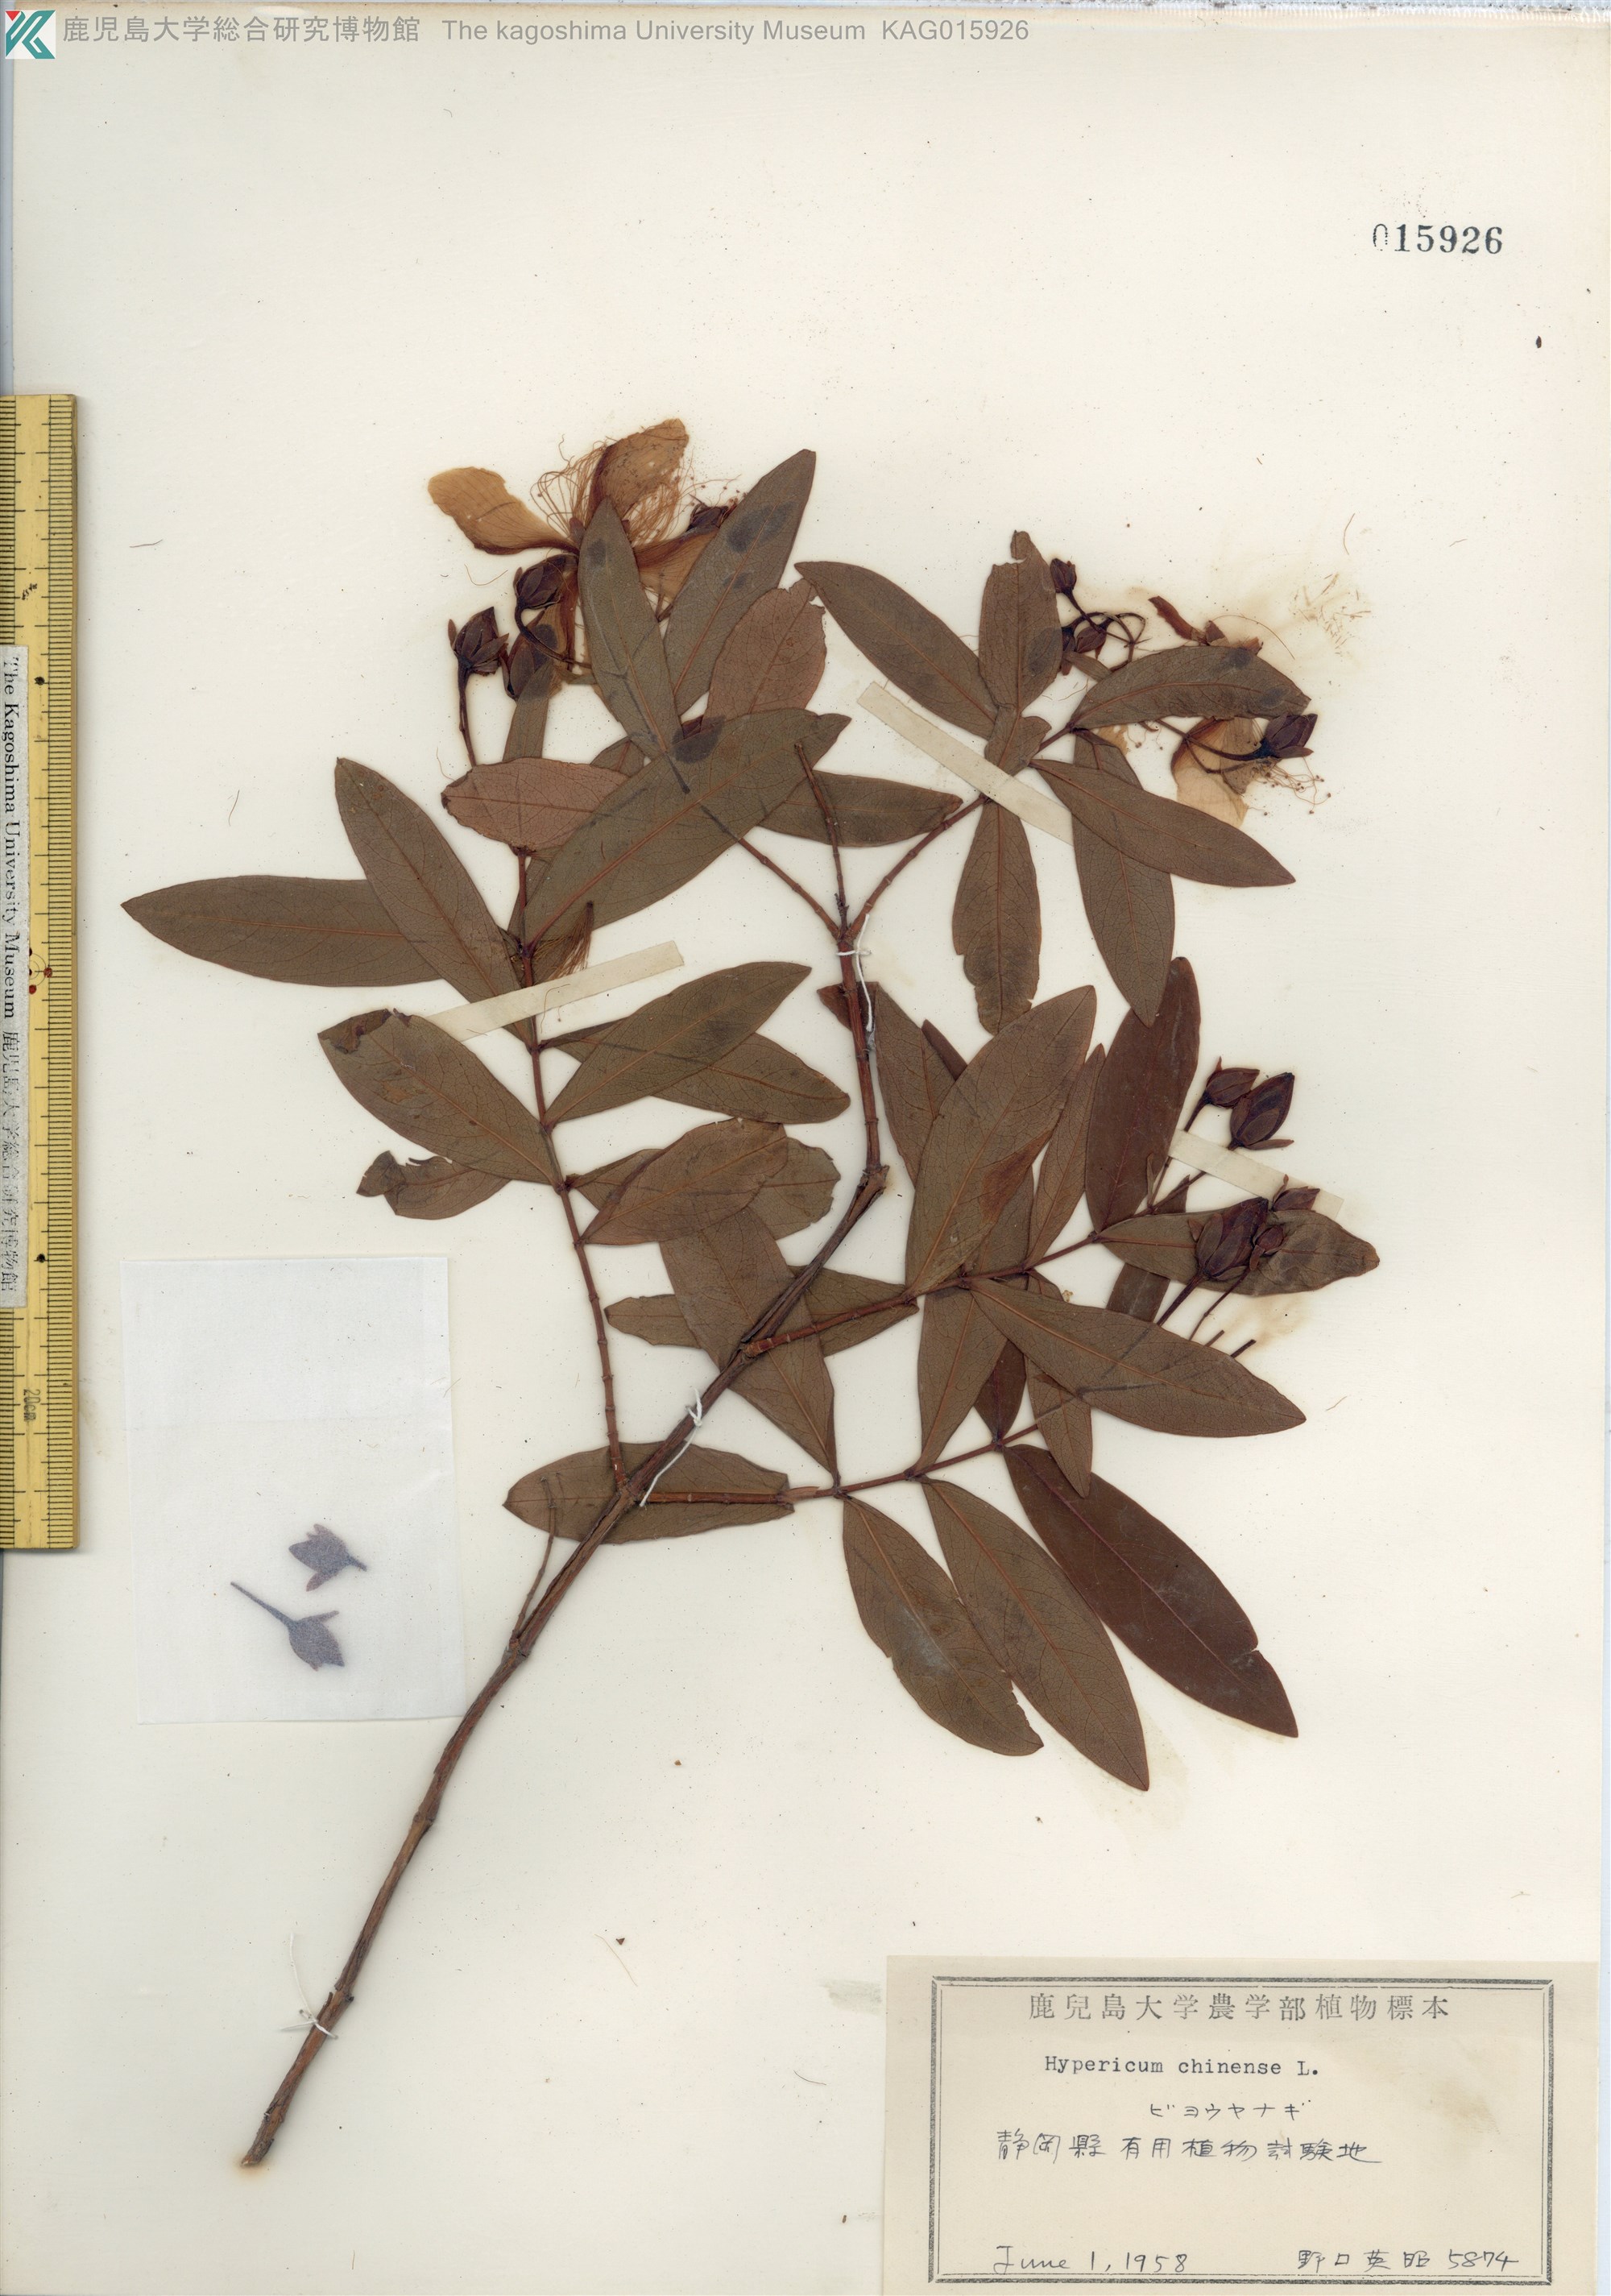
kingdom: Plantae
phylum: Tracheophyta
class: Magnoliopsida
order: Malpighiales
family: Hypericaceae
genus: Hypericum
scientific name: Hypericum monogynum
